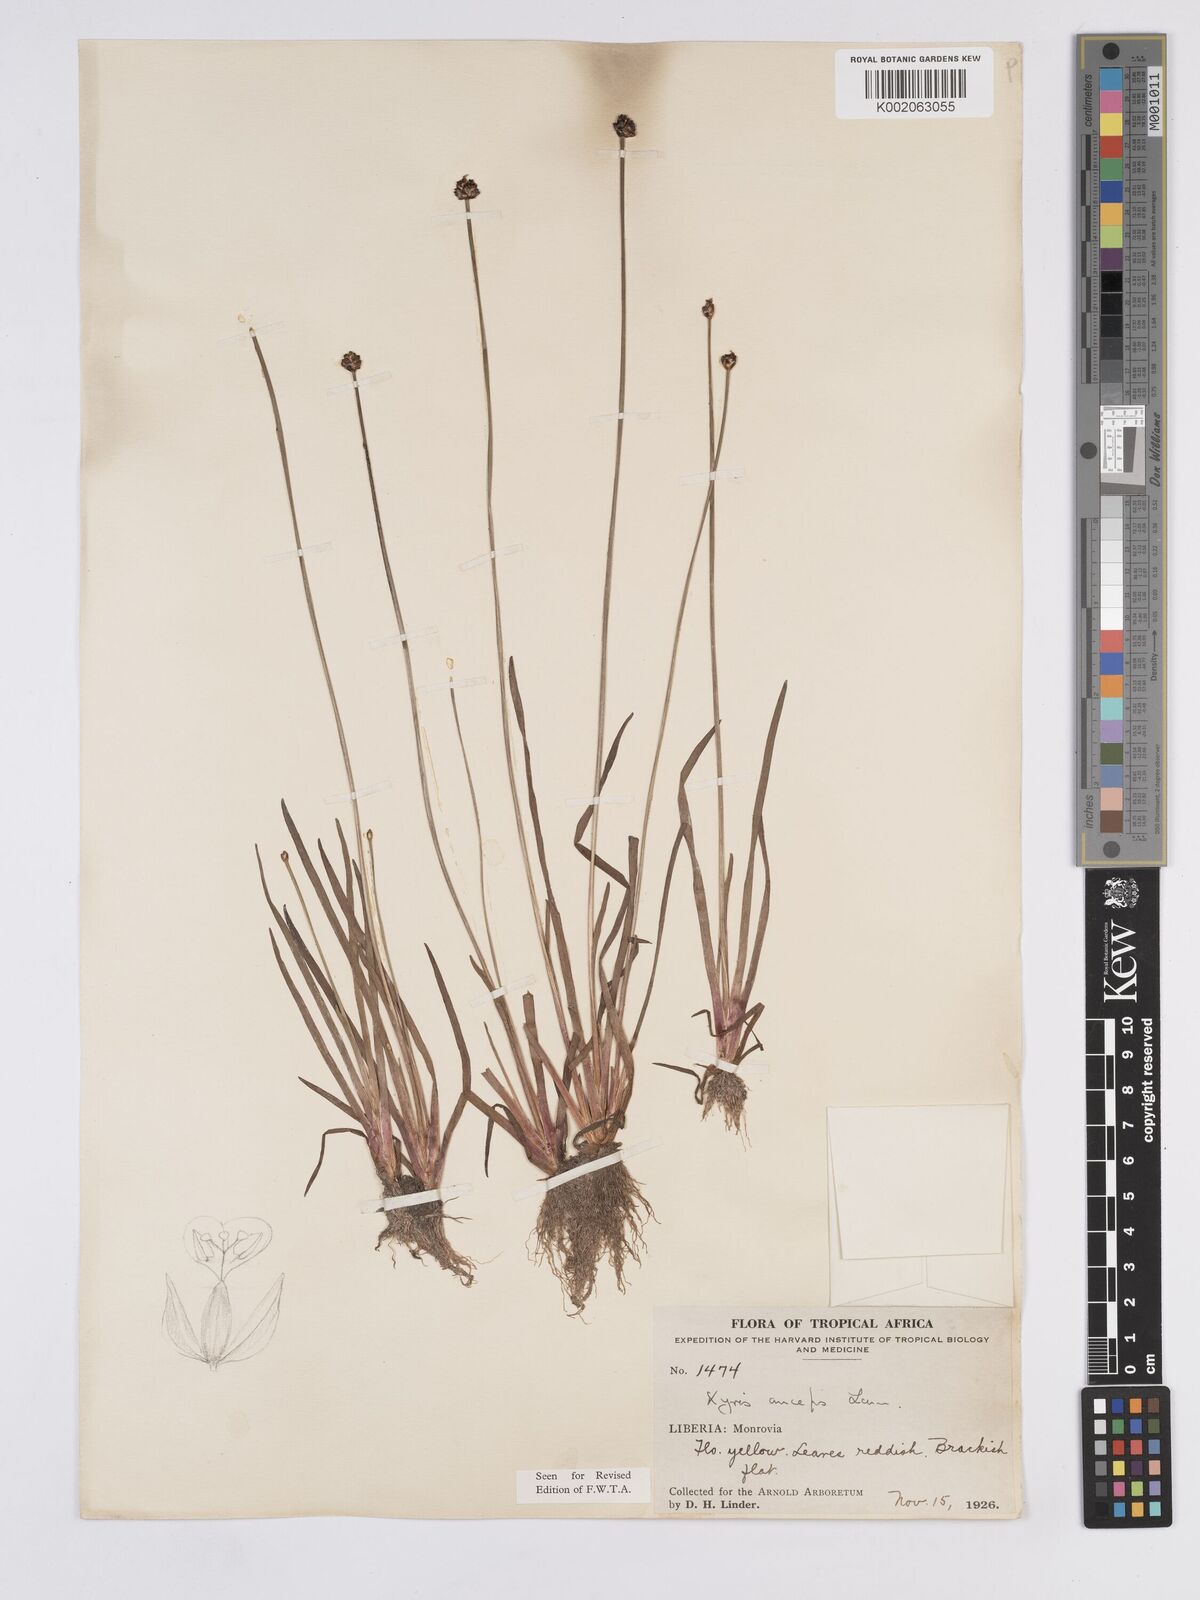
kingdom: Plantae
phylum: Tracheophyta
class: Liliopsida
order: Poales
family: Xyridaceae
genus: Xyris
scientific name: Xyris anceps
